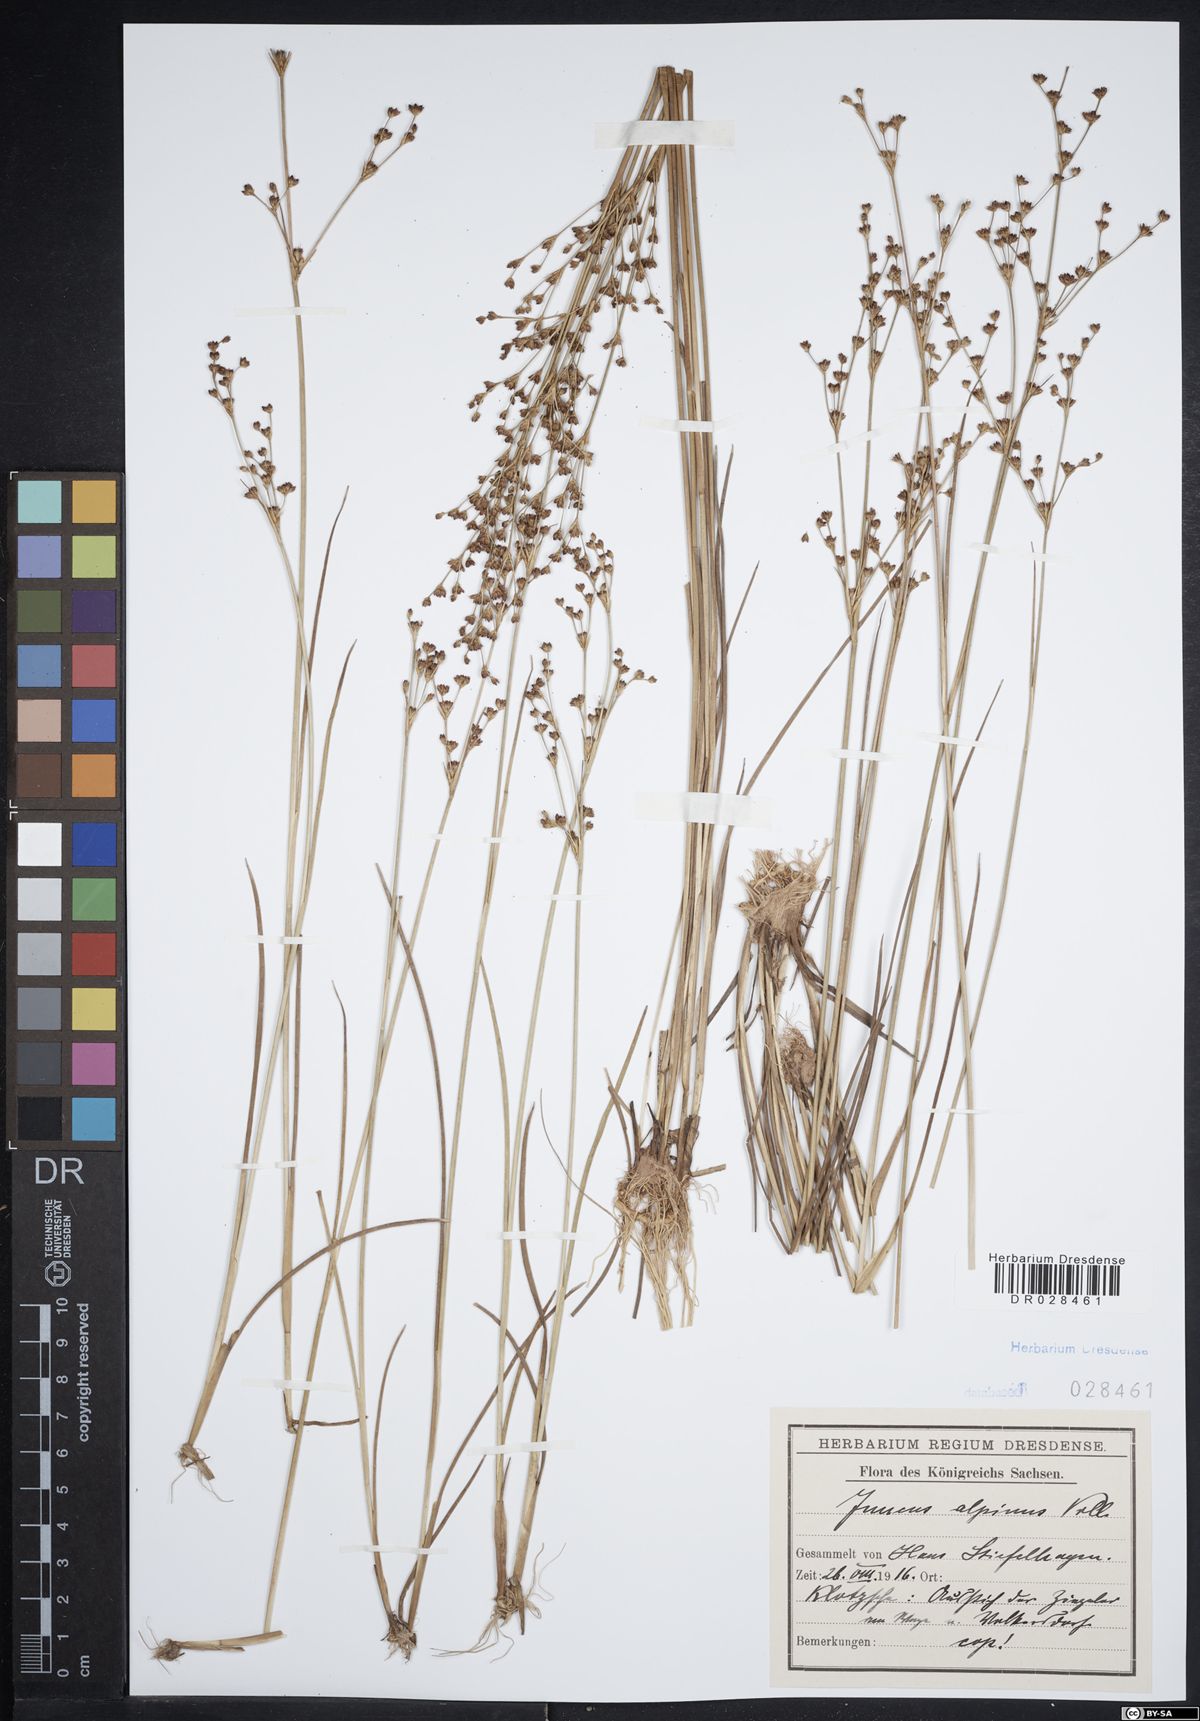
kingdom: Plantae
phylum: Tracheophyta
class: Liliopsida
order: Poales
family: Juncaceae
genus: Juncus
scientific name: Juncus alpinoarticulatus
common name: Alpine rush
